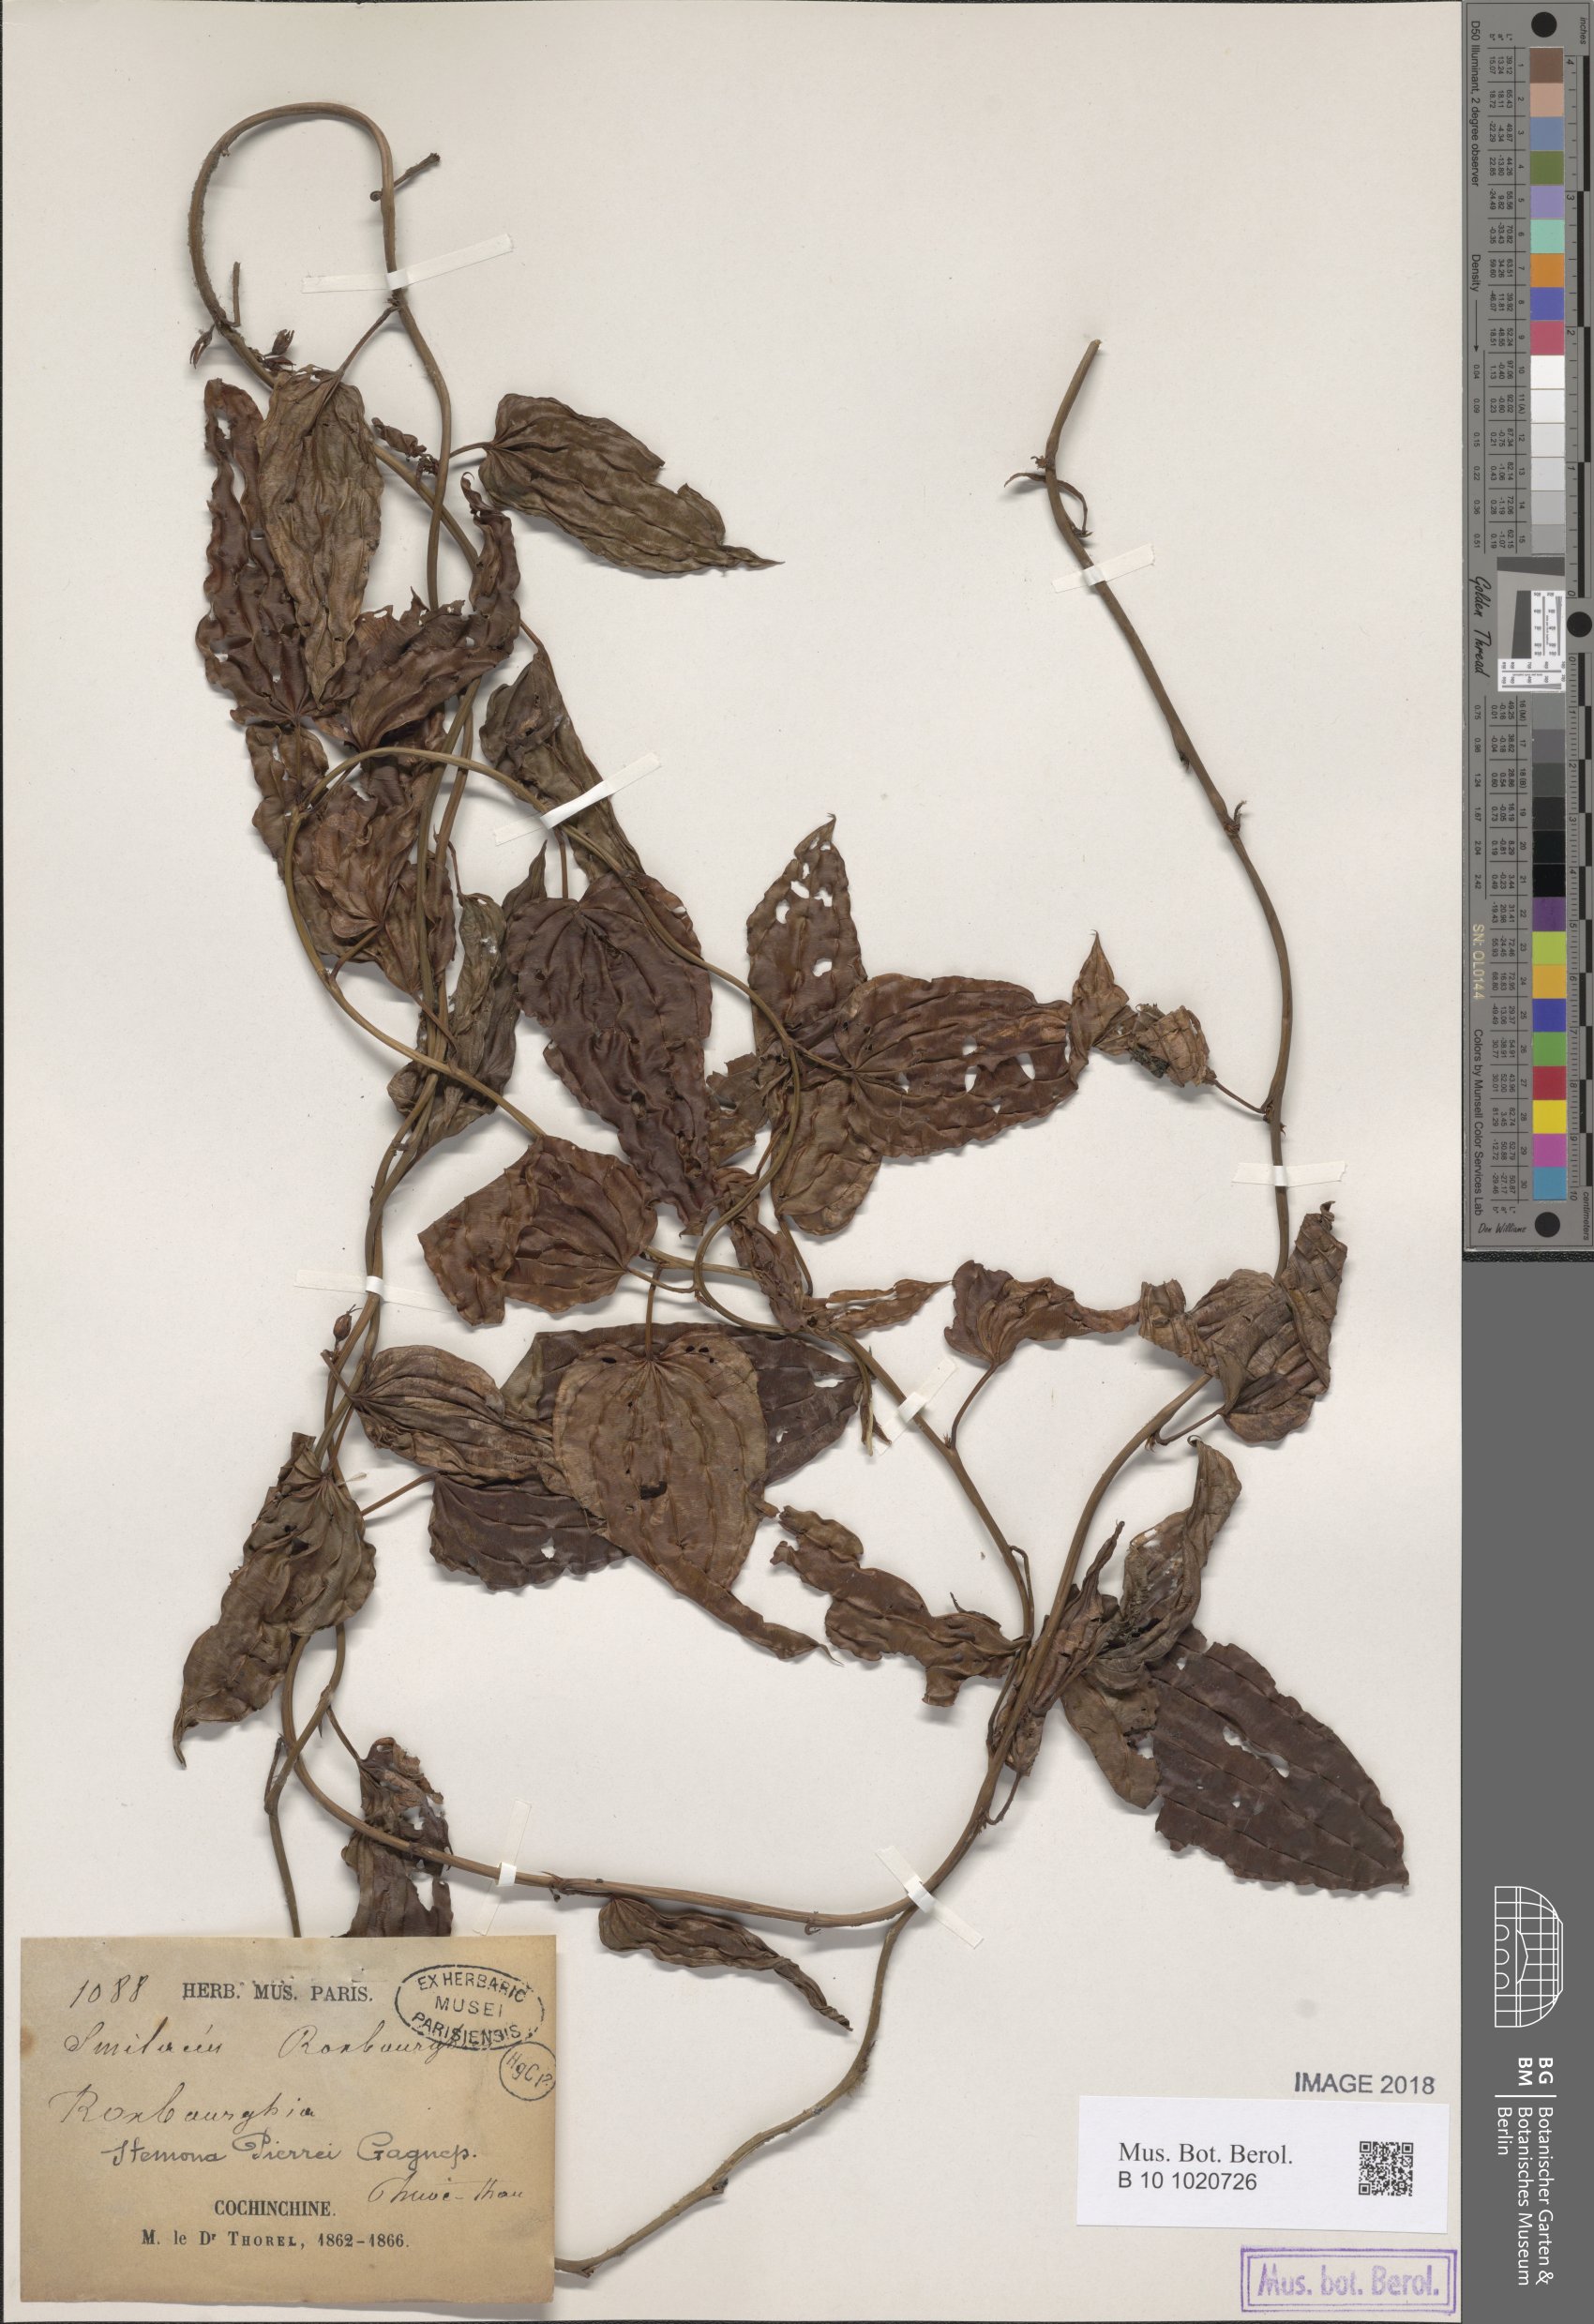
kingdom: Plantae
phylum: Tracheophyta
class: Liliopsida
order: Pandanales
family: Stemonaceae
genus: Stemona
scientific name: Stemona pierrei
